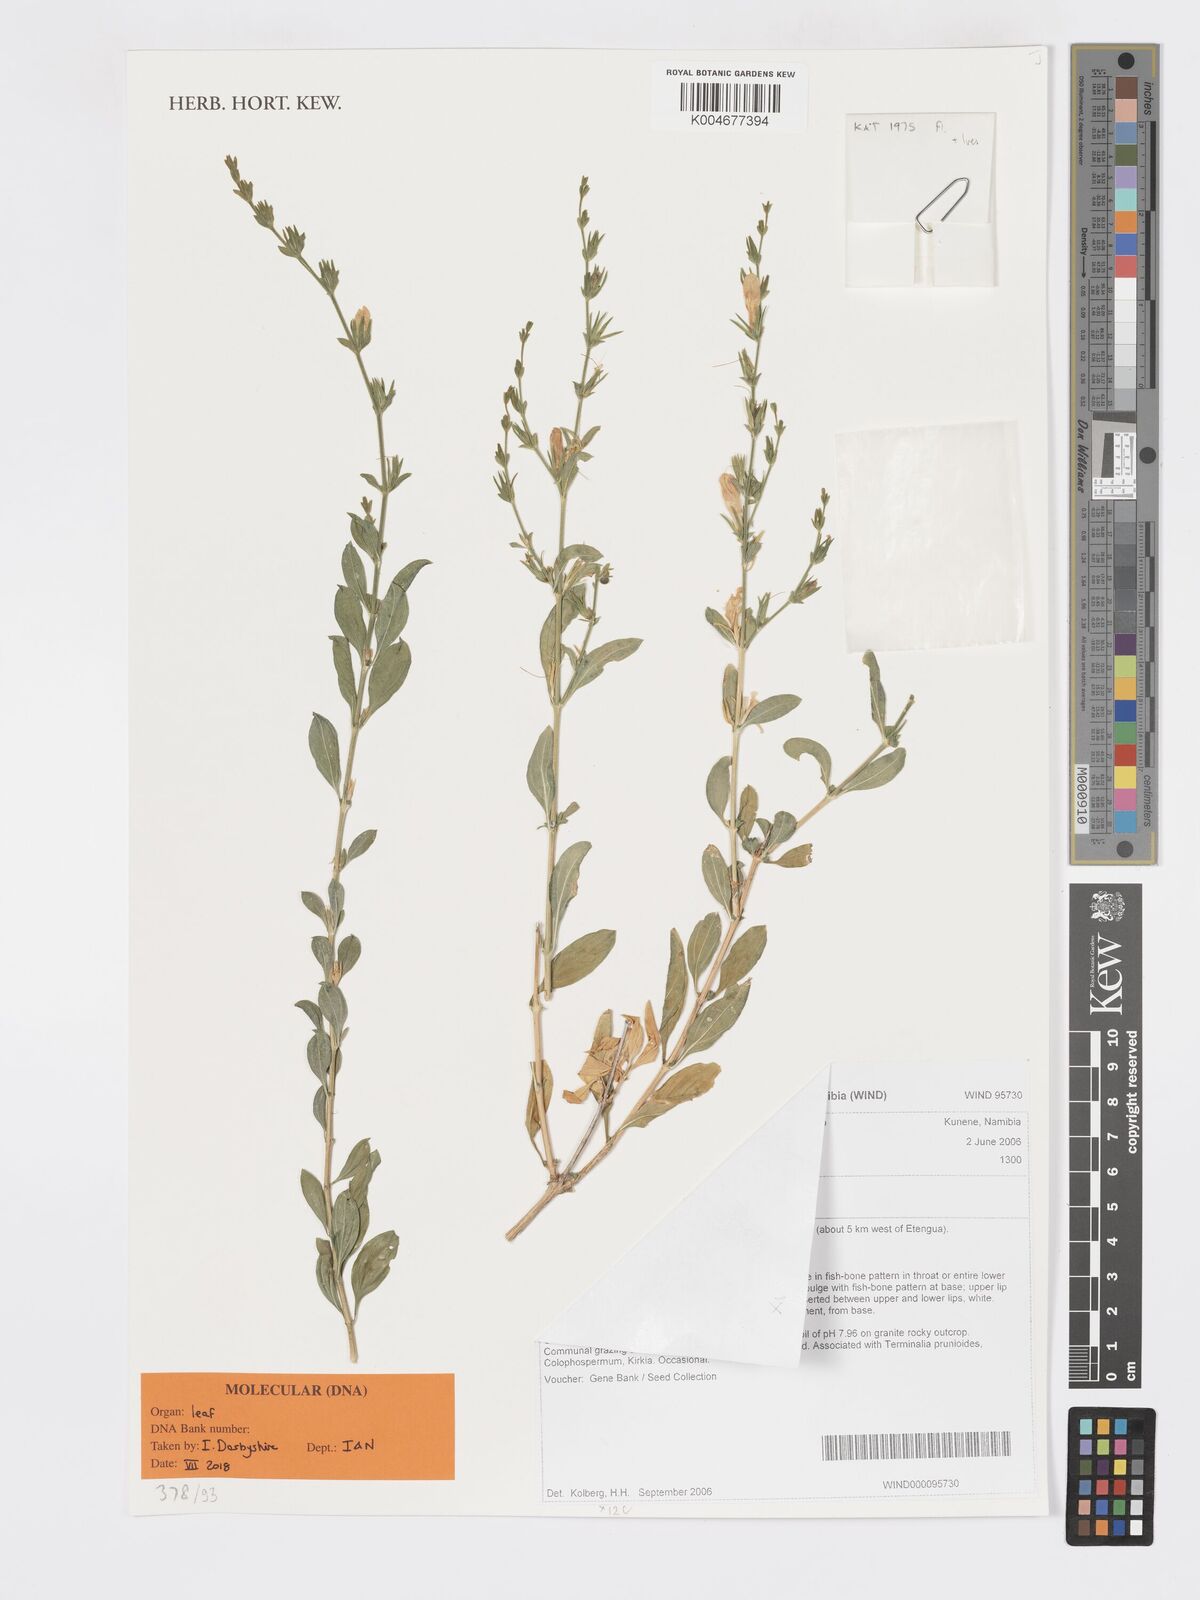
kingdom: Plantae
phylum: Tracheophyta
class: Magnoliopsida
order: Lamiales
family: Acanthaceae
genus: Pogonospermum
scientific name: Pogonospermum
